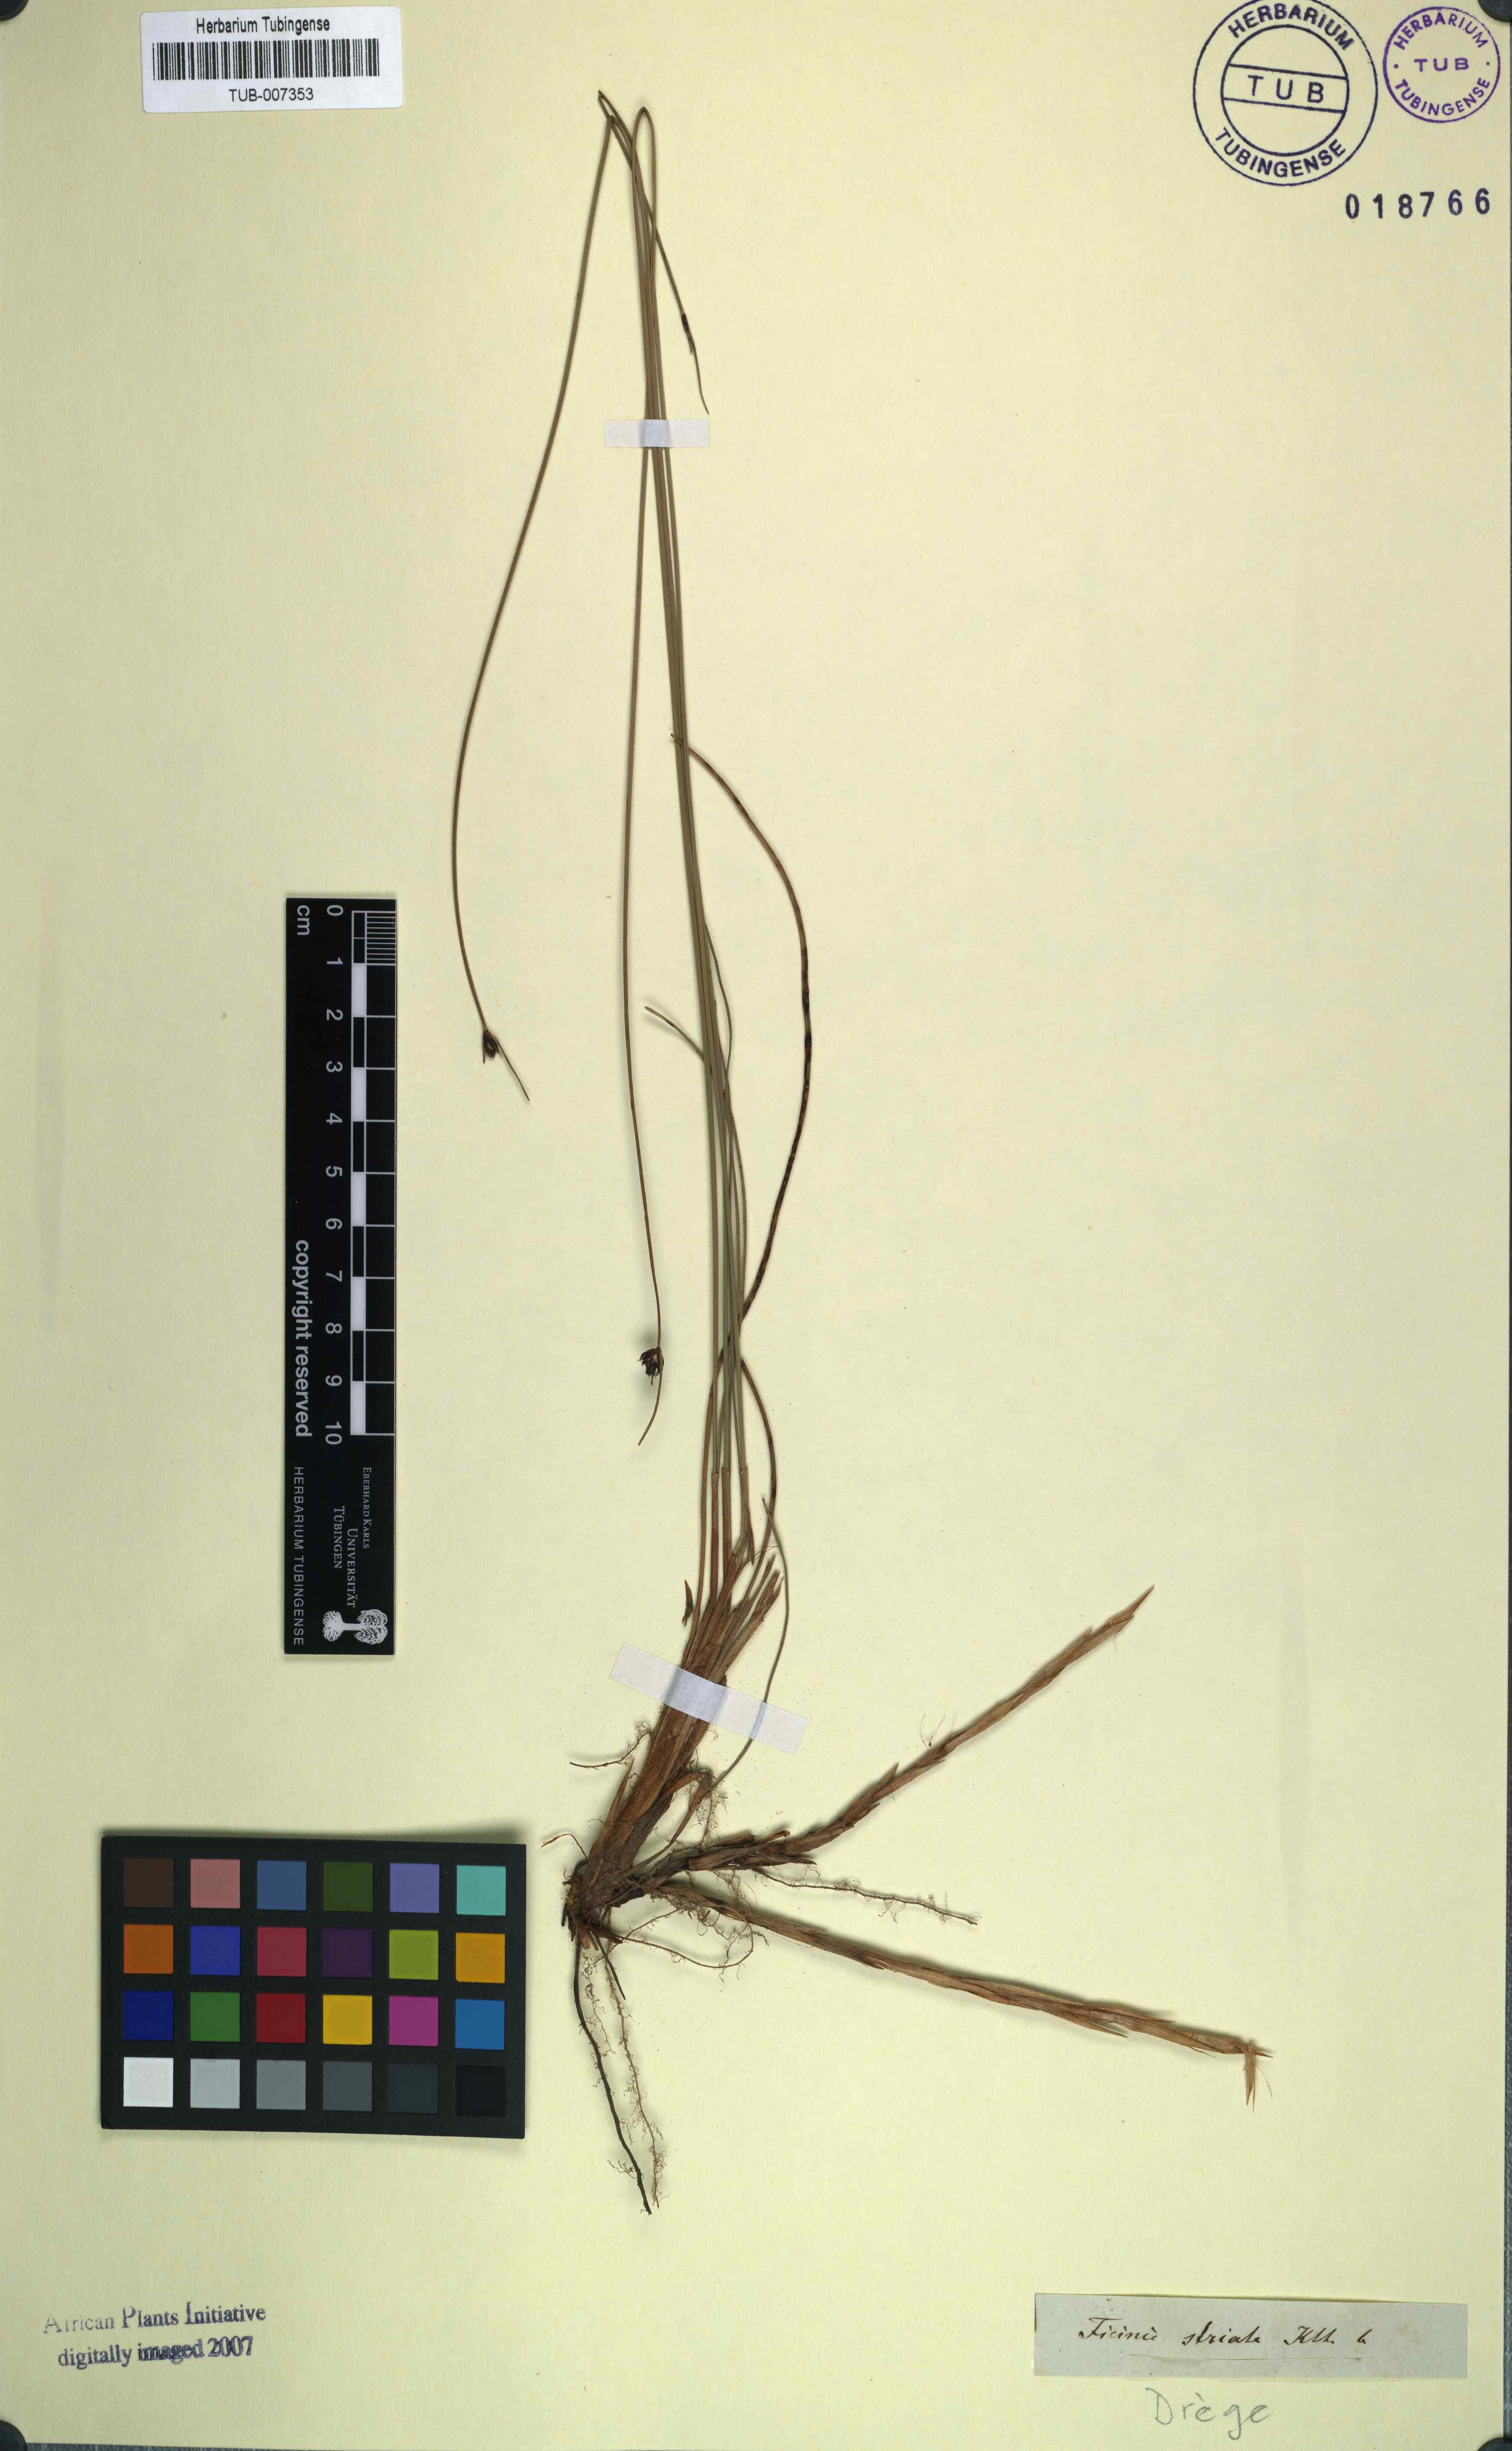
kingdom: Plantae
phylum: Tracheophyta
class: Liliopsida
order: Poales
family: Cyperaceae
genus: Ficinia
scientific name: Ficinia indica
